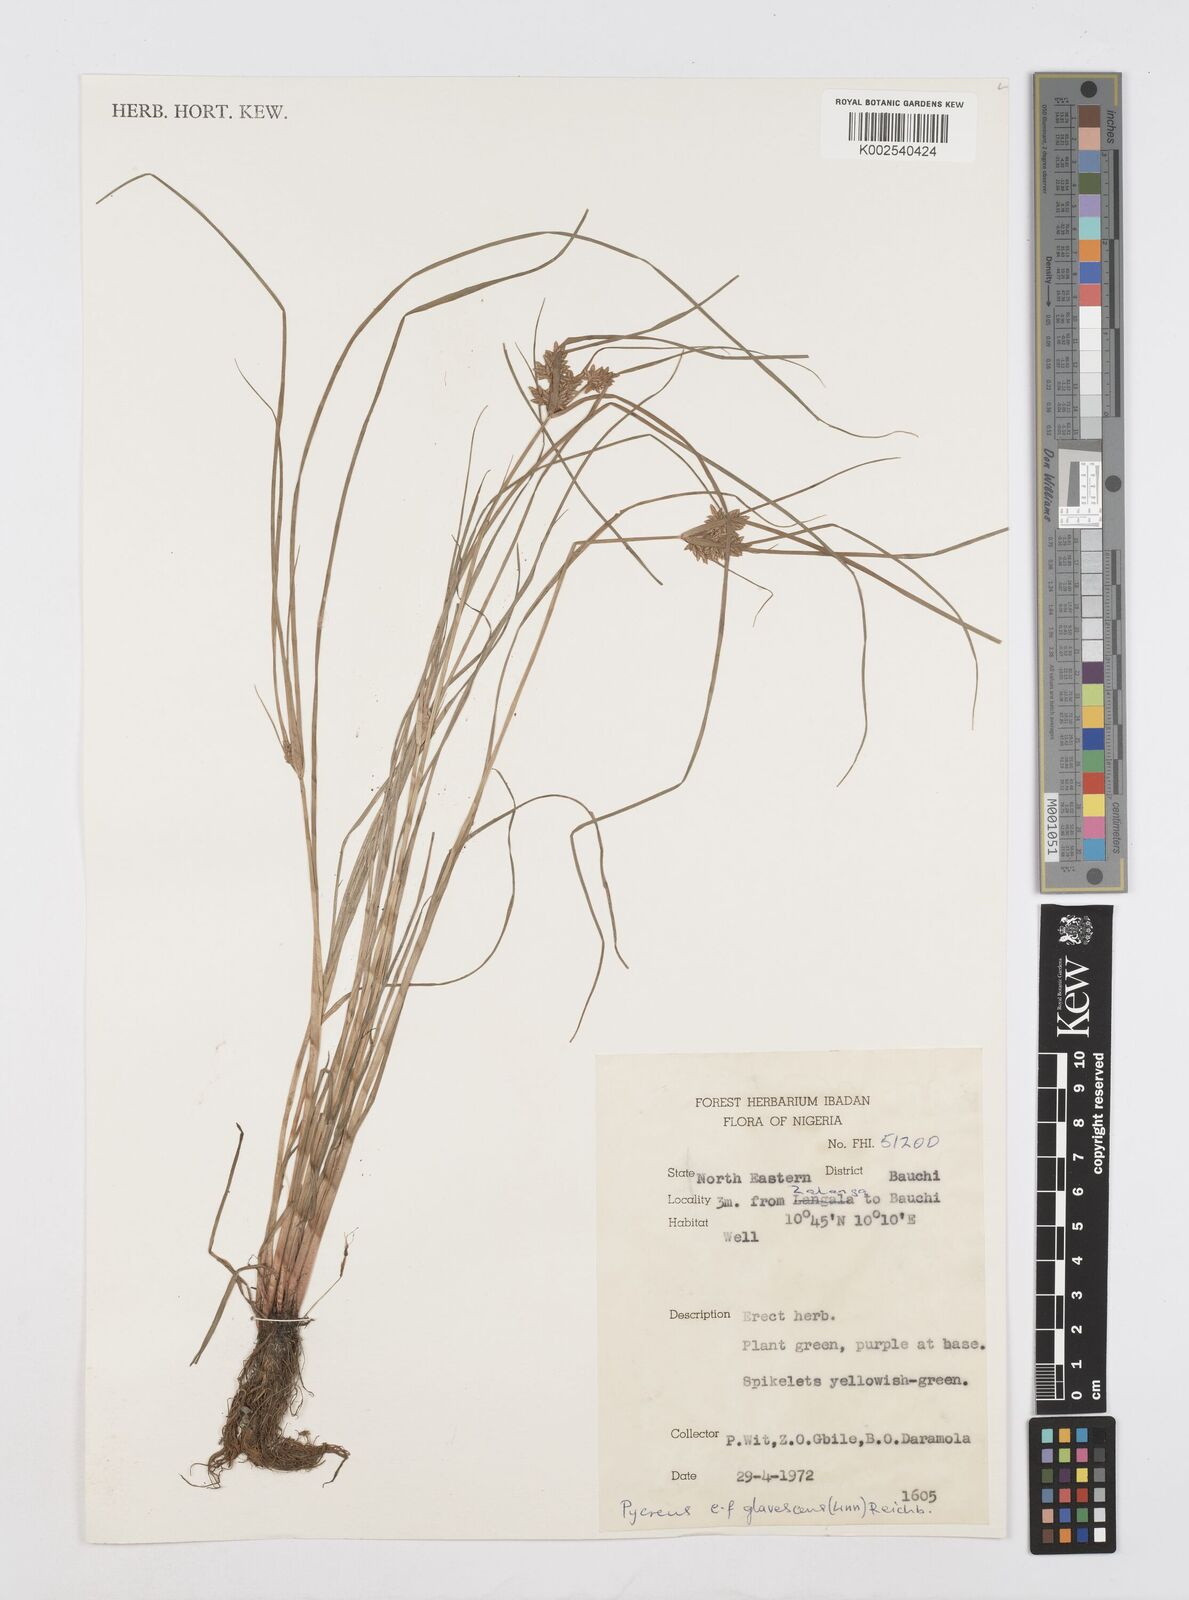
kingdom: Plantae
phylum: Tracheophyta
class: Liliopsida
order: Poales
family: Cyperaceae
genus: Cyperus
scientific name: Cyperus flavescens
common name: Yellow galingale
